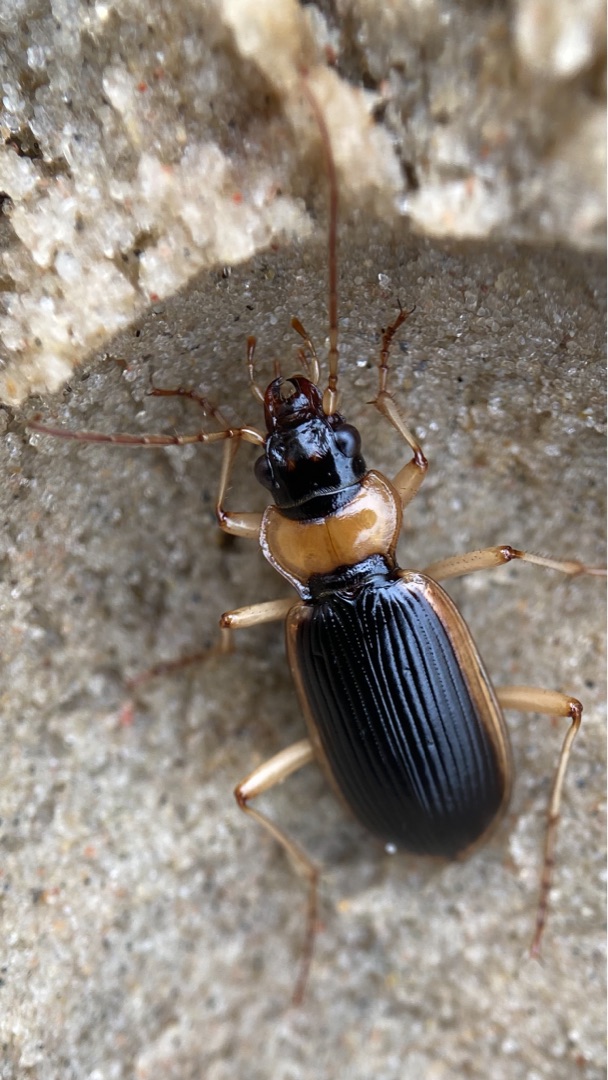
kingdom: Animalia
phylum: Arthropoda
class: Insecta
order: Coleoptera
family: Carabidae
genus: Nebria
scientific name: Nebria livida
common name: Gulrandet fladløber
